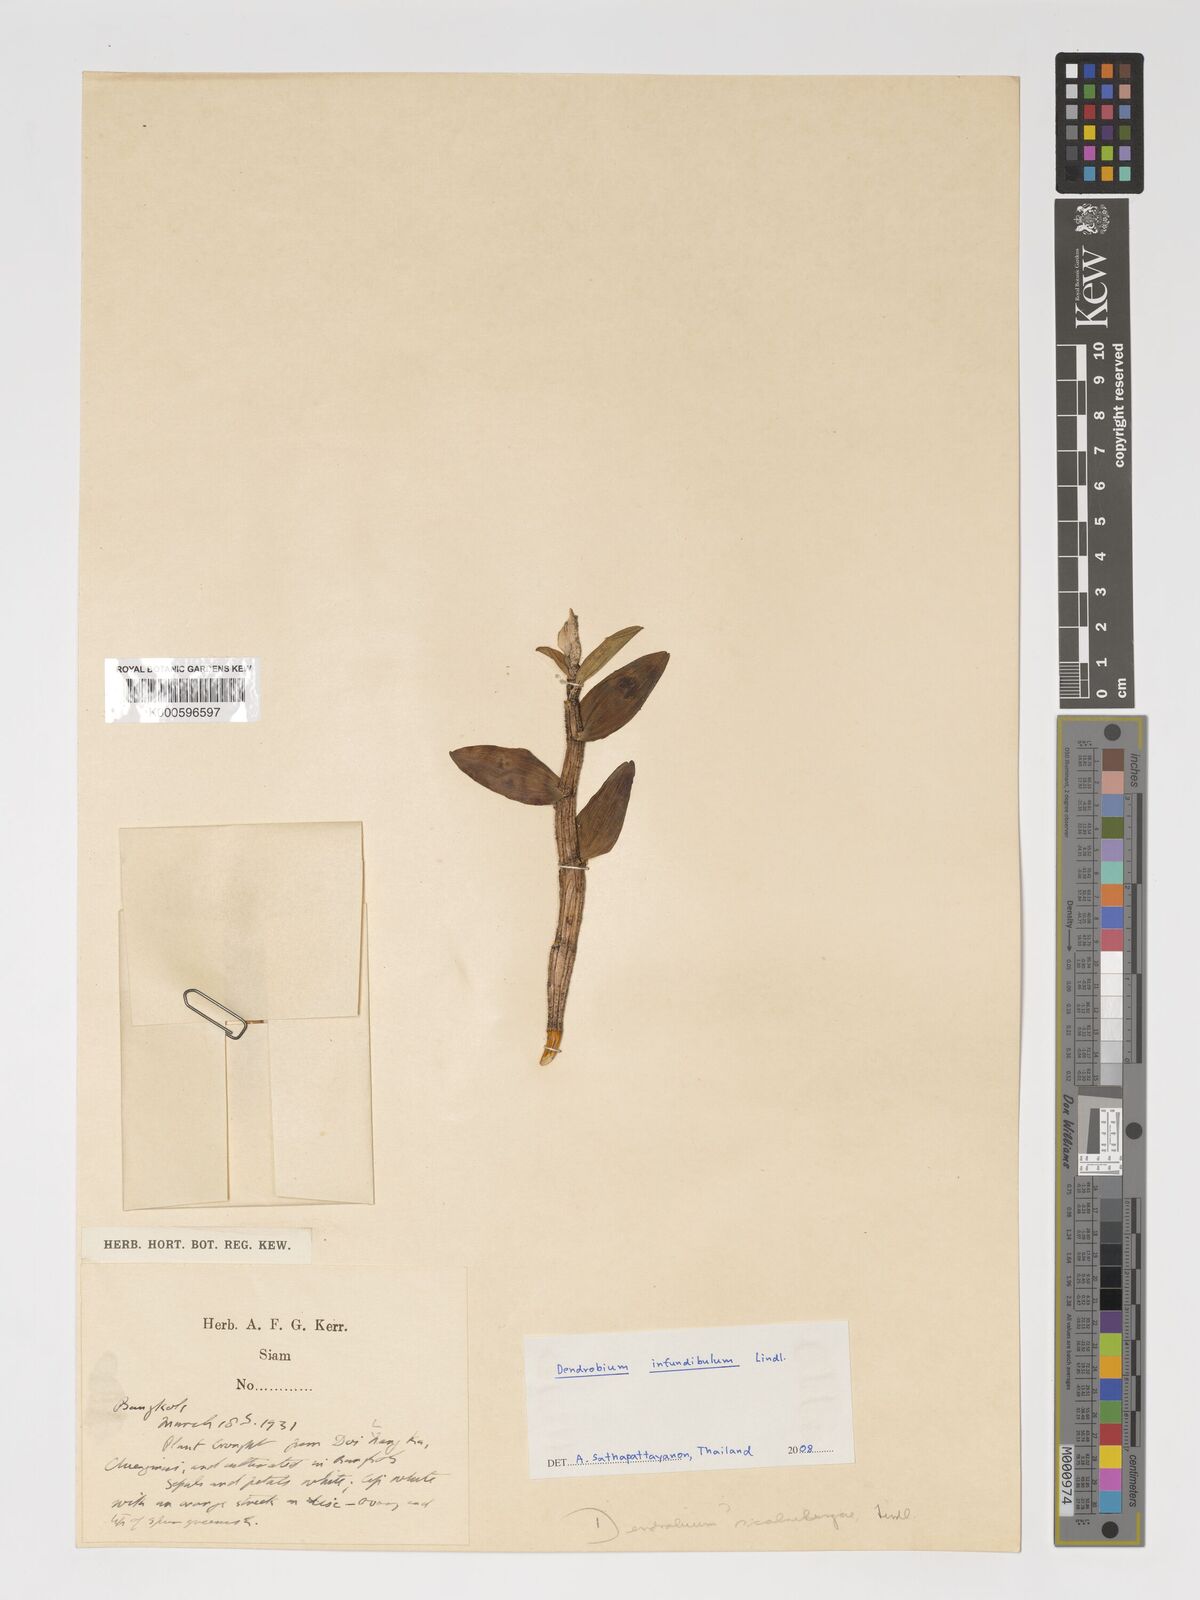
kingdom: Plantae
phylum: Tracheophyta
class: Liliopsida
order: Asparagales
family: Orchidaceae
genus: Dendrobium
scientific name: Dendrobium infundibulum
